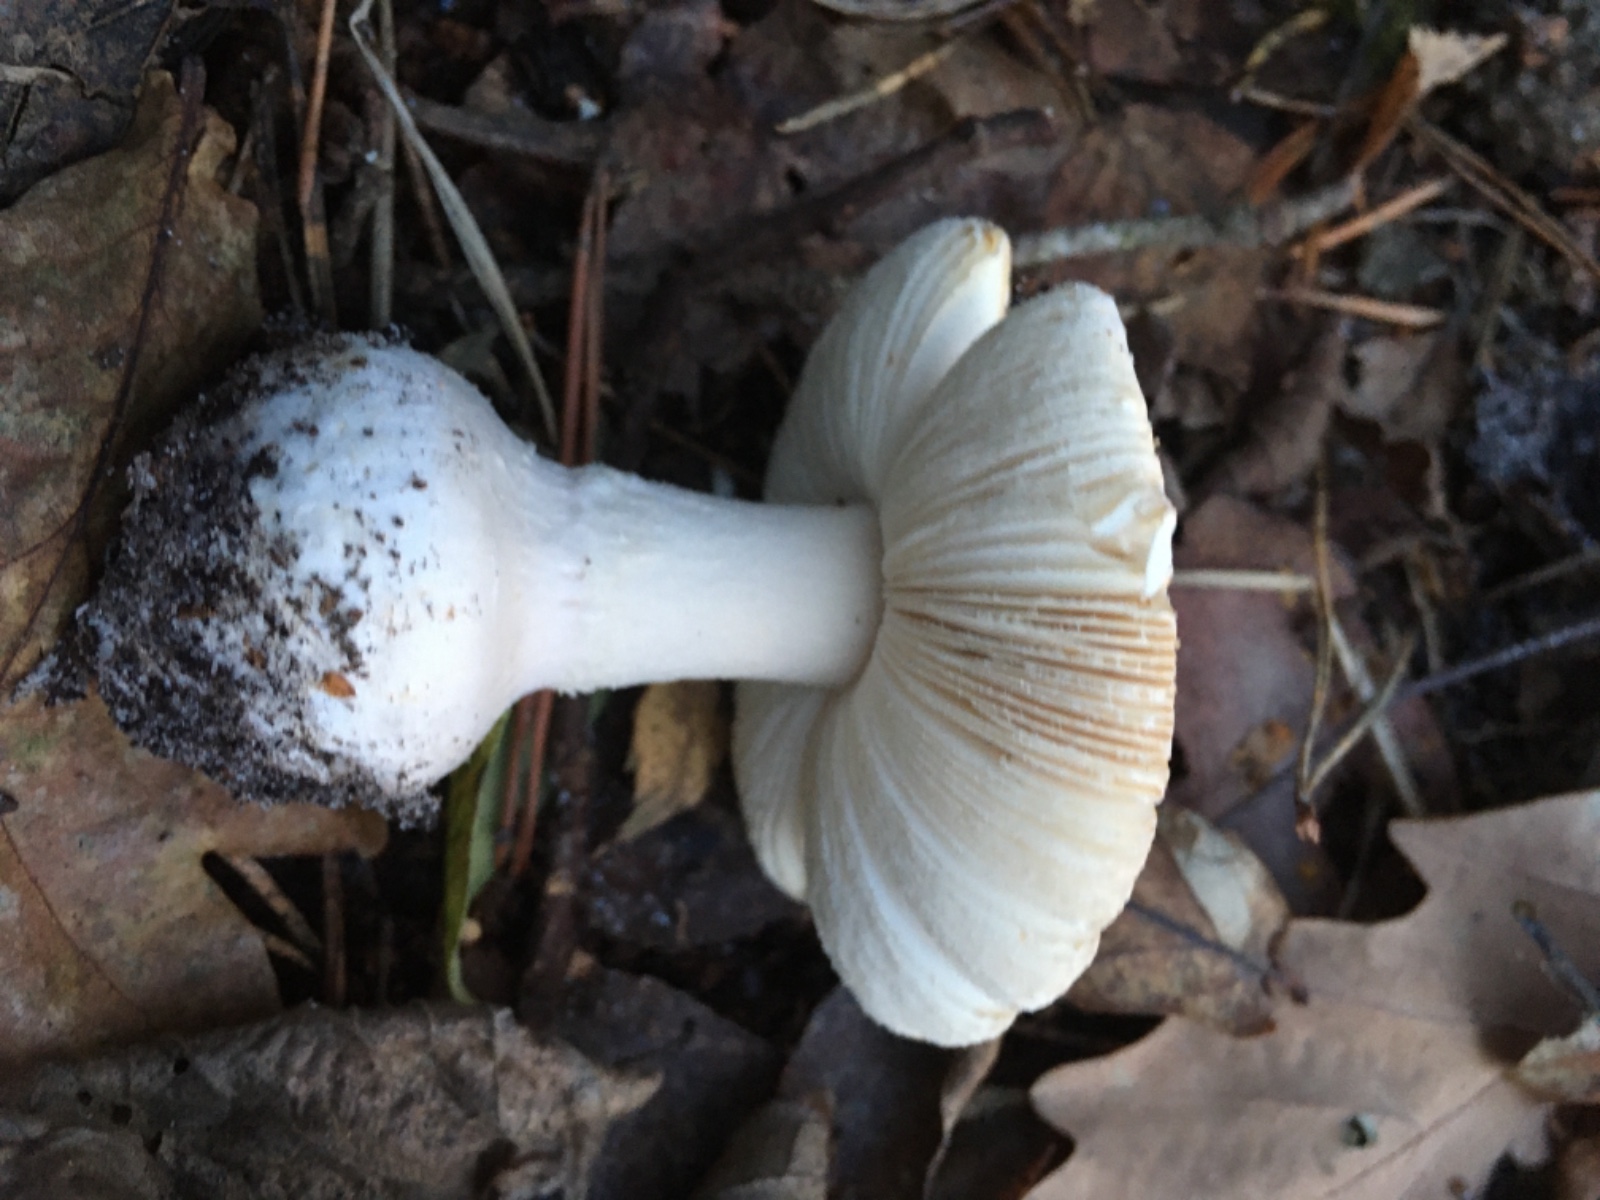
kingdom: Fungi
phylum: Basidiomycota
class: Agaricomycetes
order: Agaricales
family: Amanitaceae
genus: Amanita
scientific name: Amanita gemmata
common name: okkergul fluesvamp
